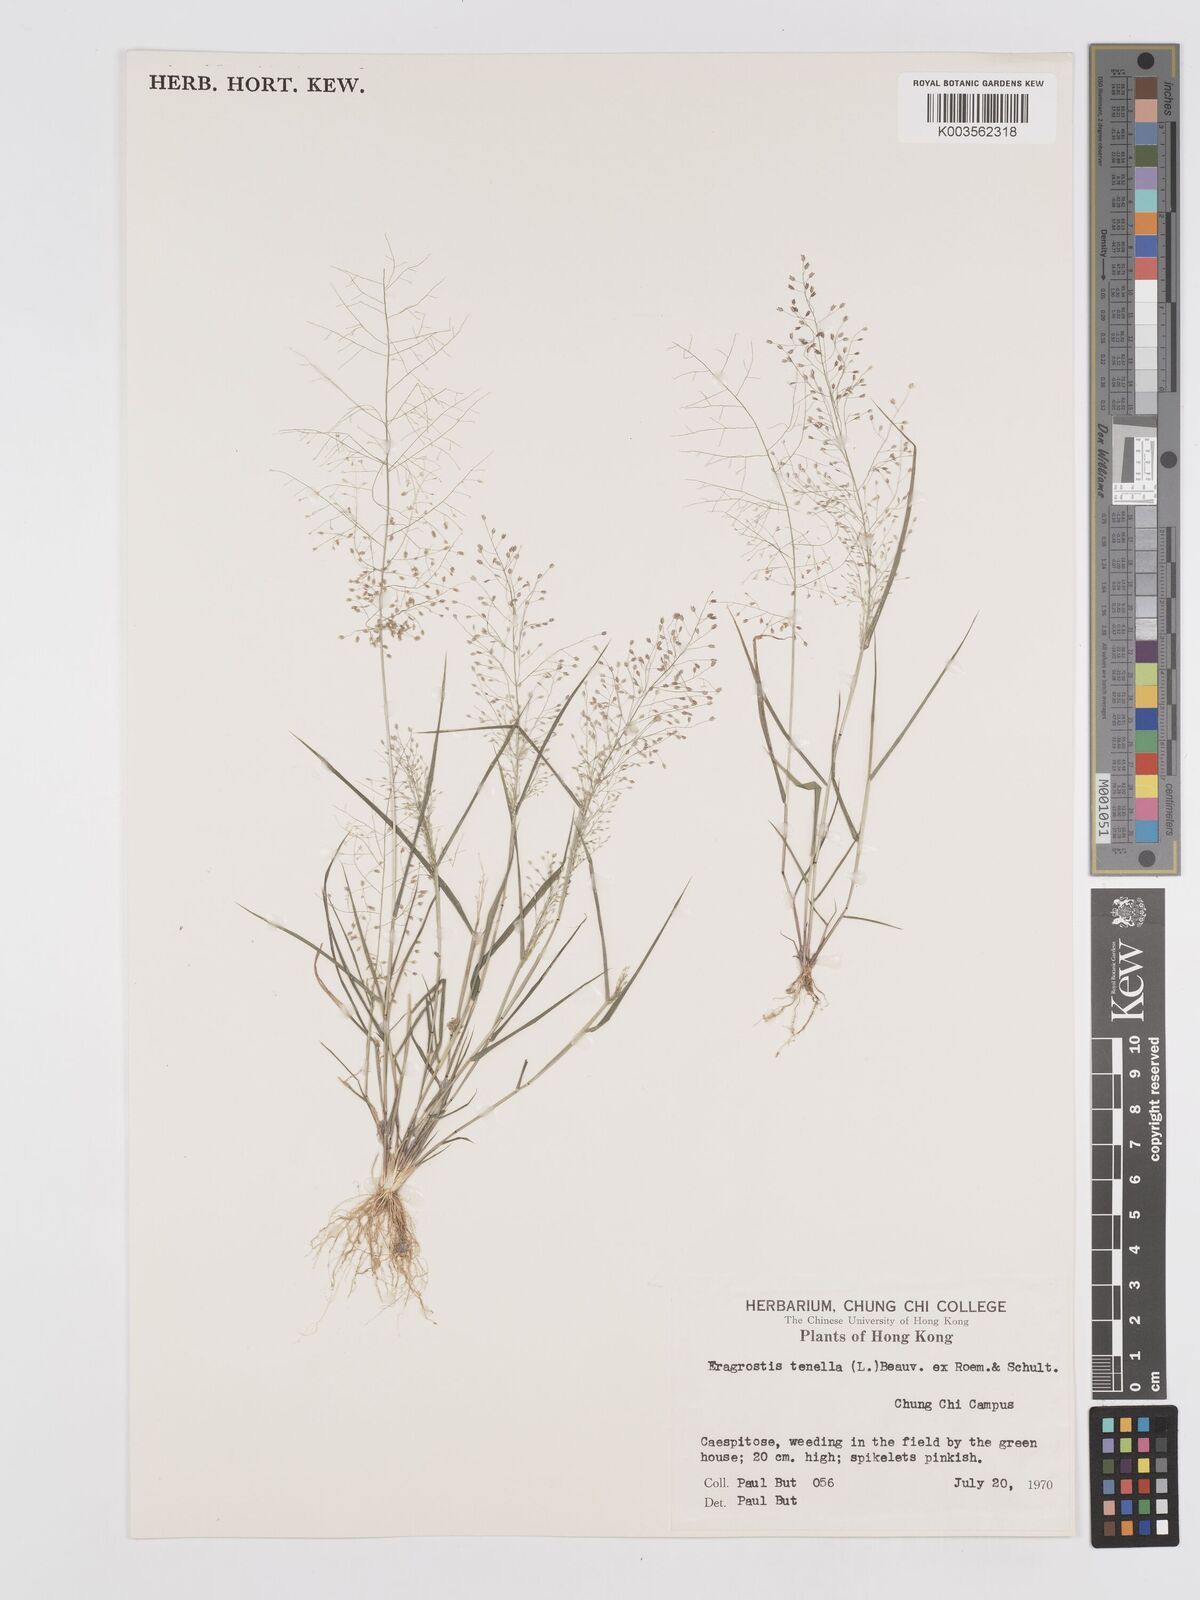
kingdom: Plantae
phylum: Tracheophyta
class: Liliopsida
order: Poales
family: Poaceae
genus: Eragrostis
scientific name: Eragrostis tenella
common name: Japanese lovegrass
